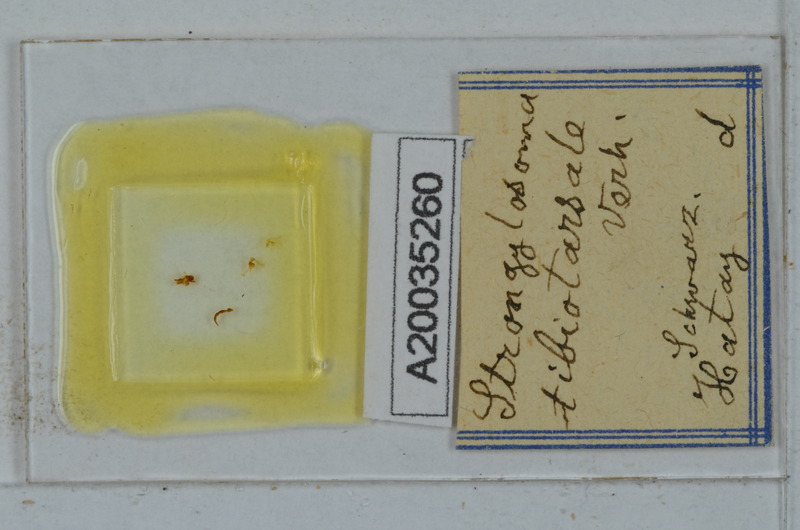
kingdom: Animalia
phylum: Arthropoda
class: Diplopoda
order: Polydesmida
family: Paradoxosomatidae
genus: Lohmanderodesmus
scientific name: Lohmanderodesmus galeatus
